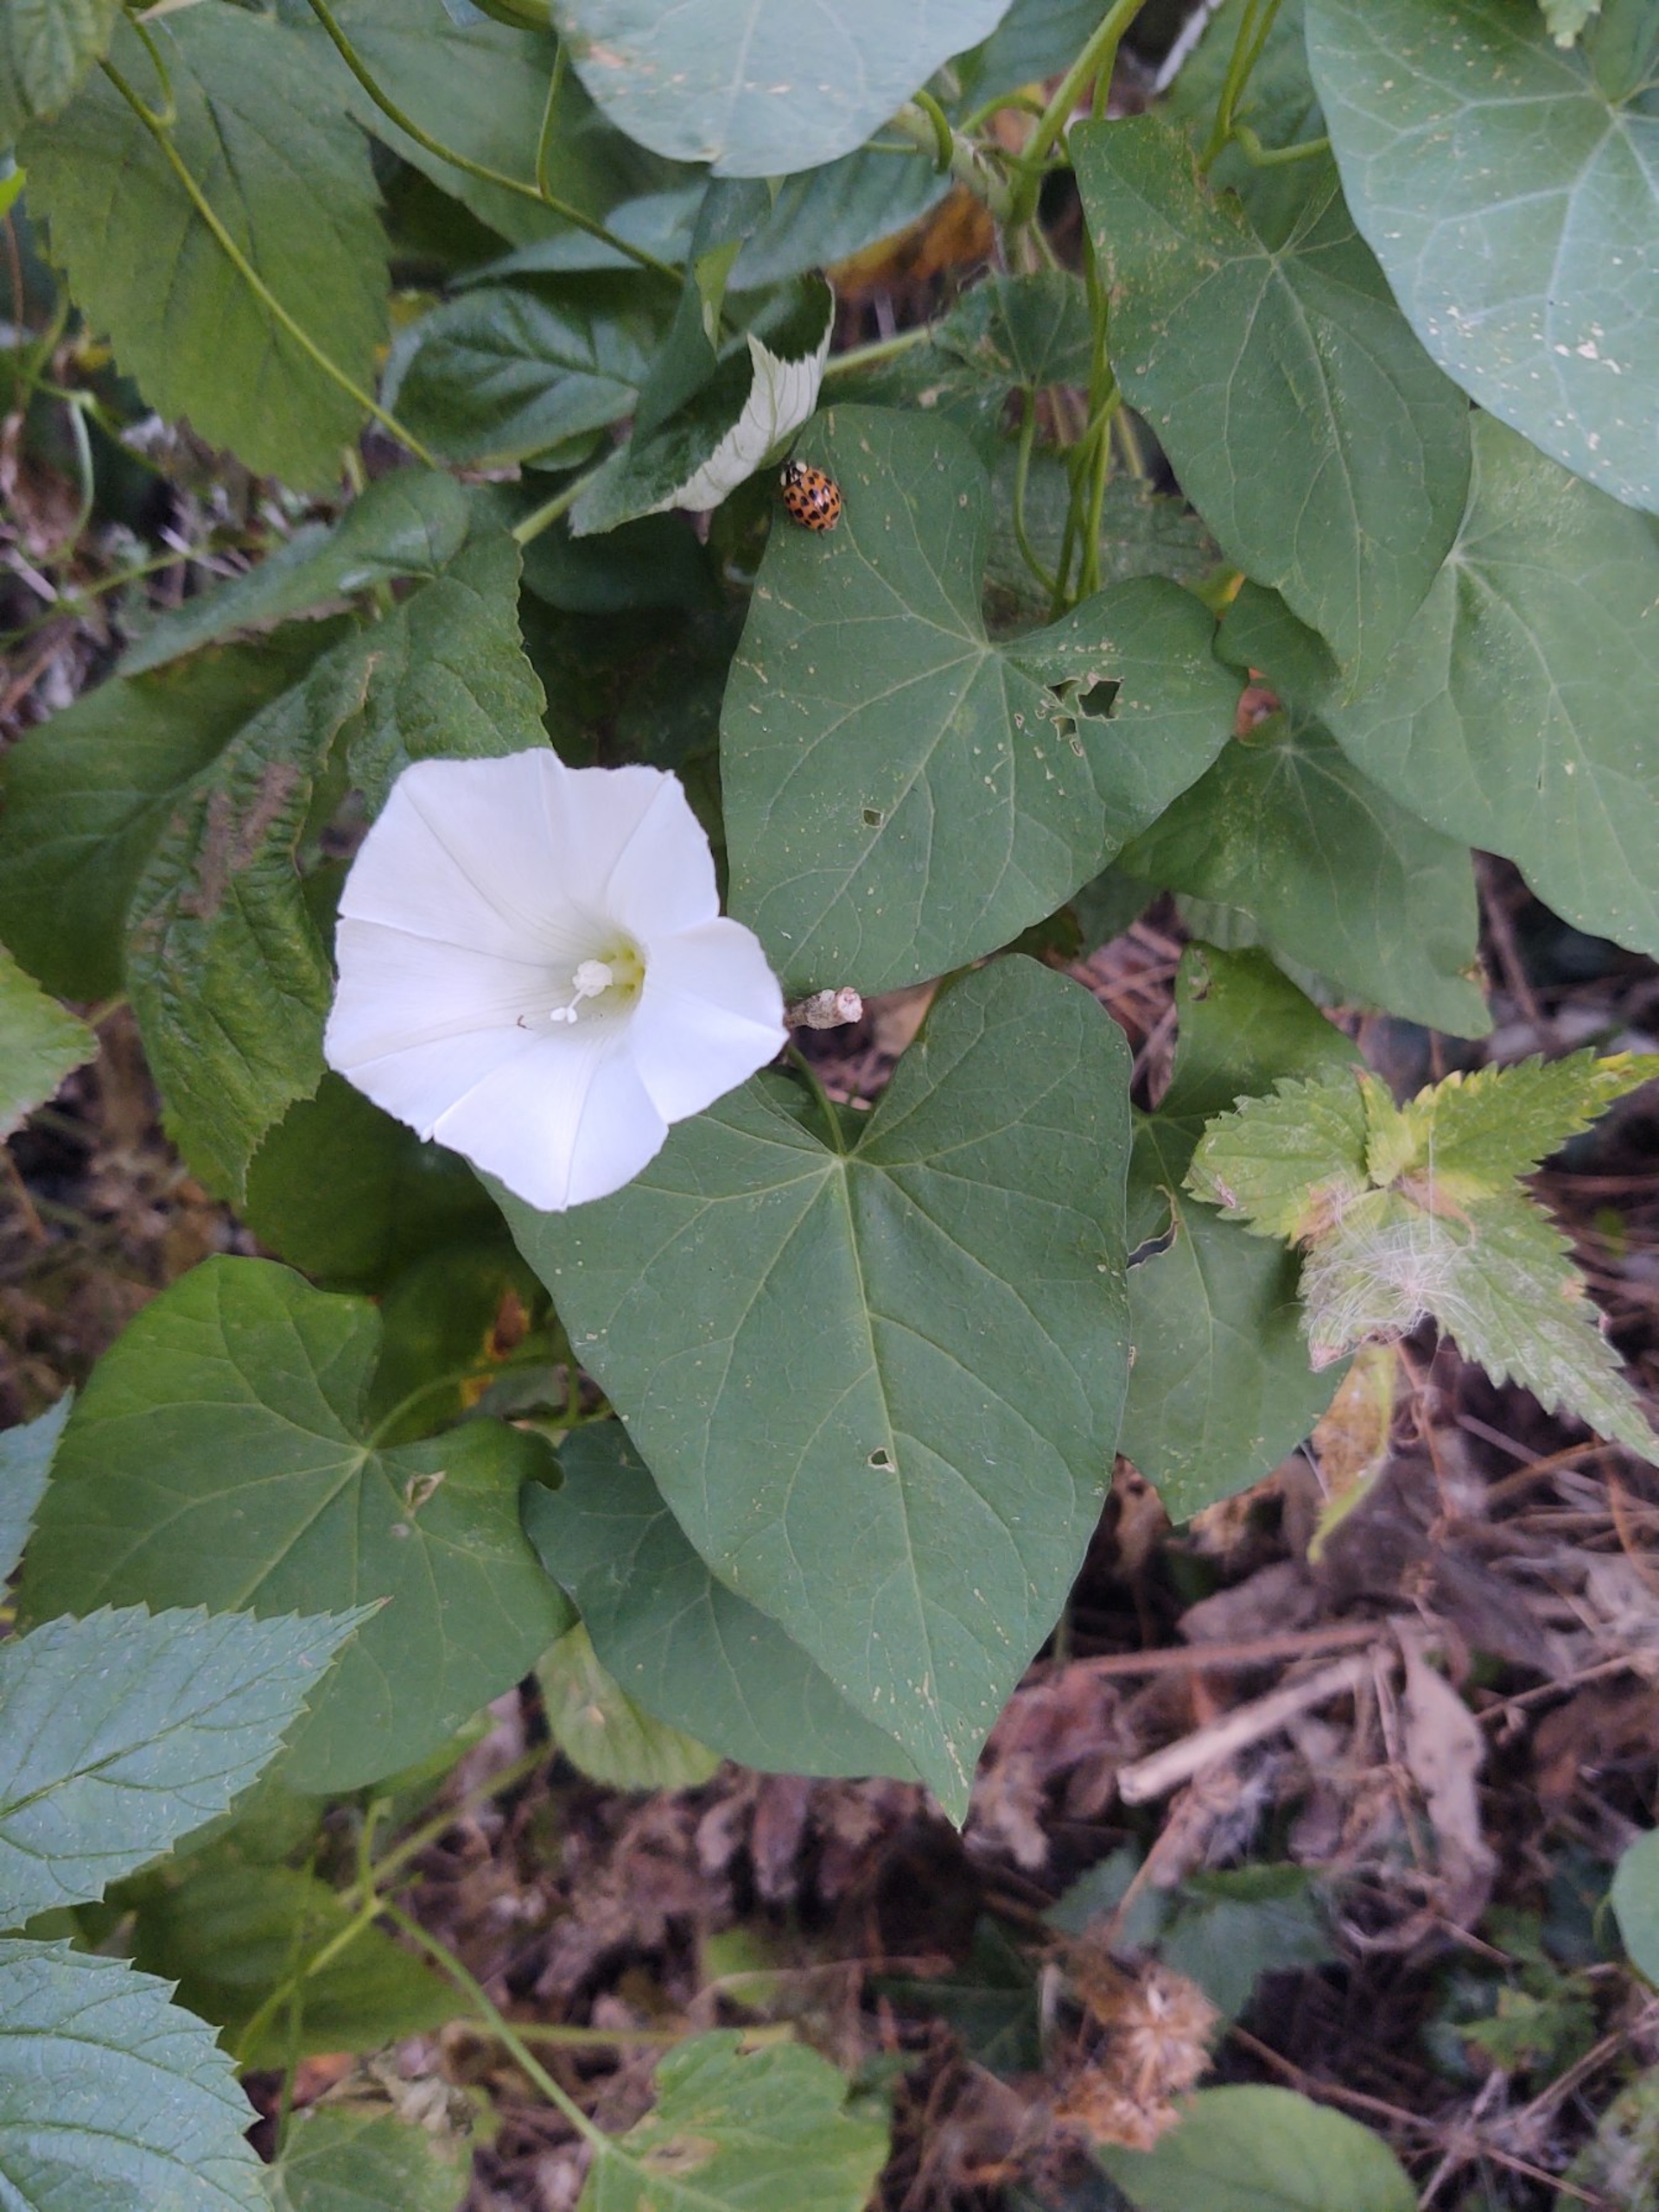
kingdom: Plantae
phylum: Tracheophyta
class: Magnoliopsida
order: Solanales
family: Convolvulaceae
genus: Calystegia
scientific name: Calystegia sepium
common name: Gærde-snerle
